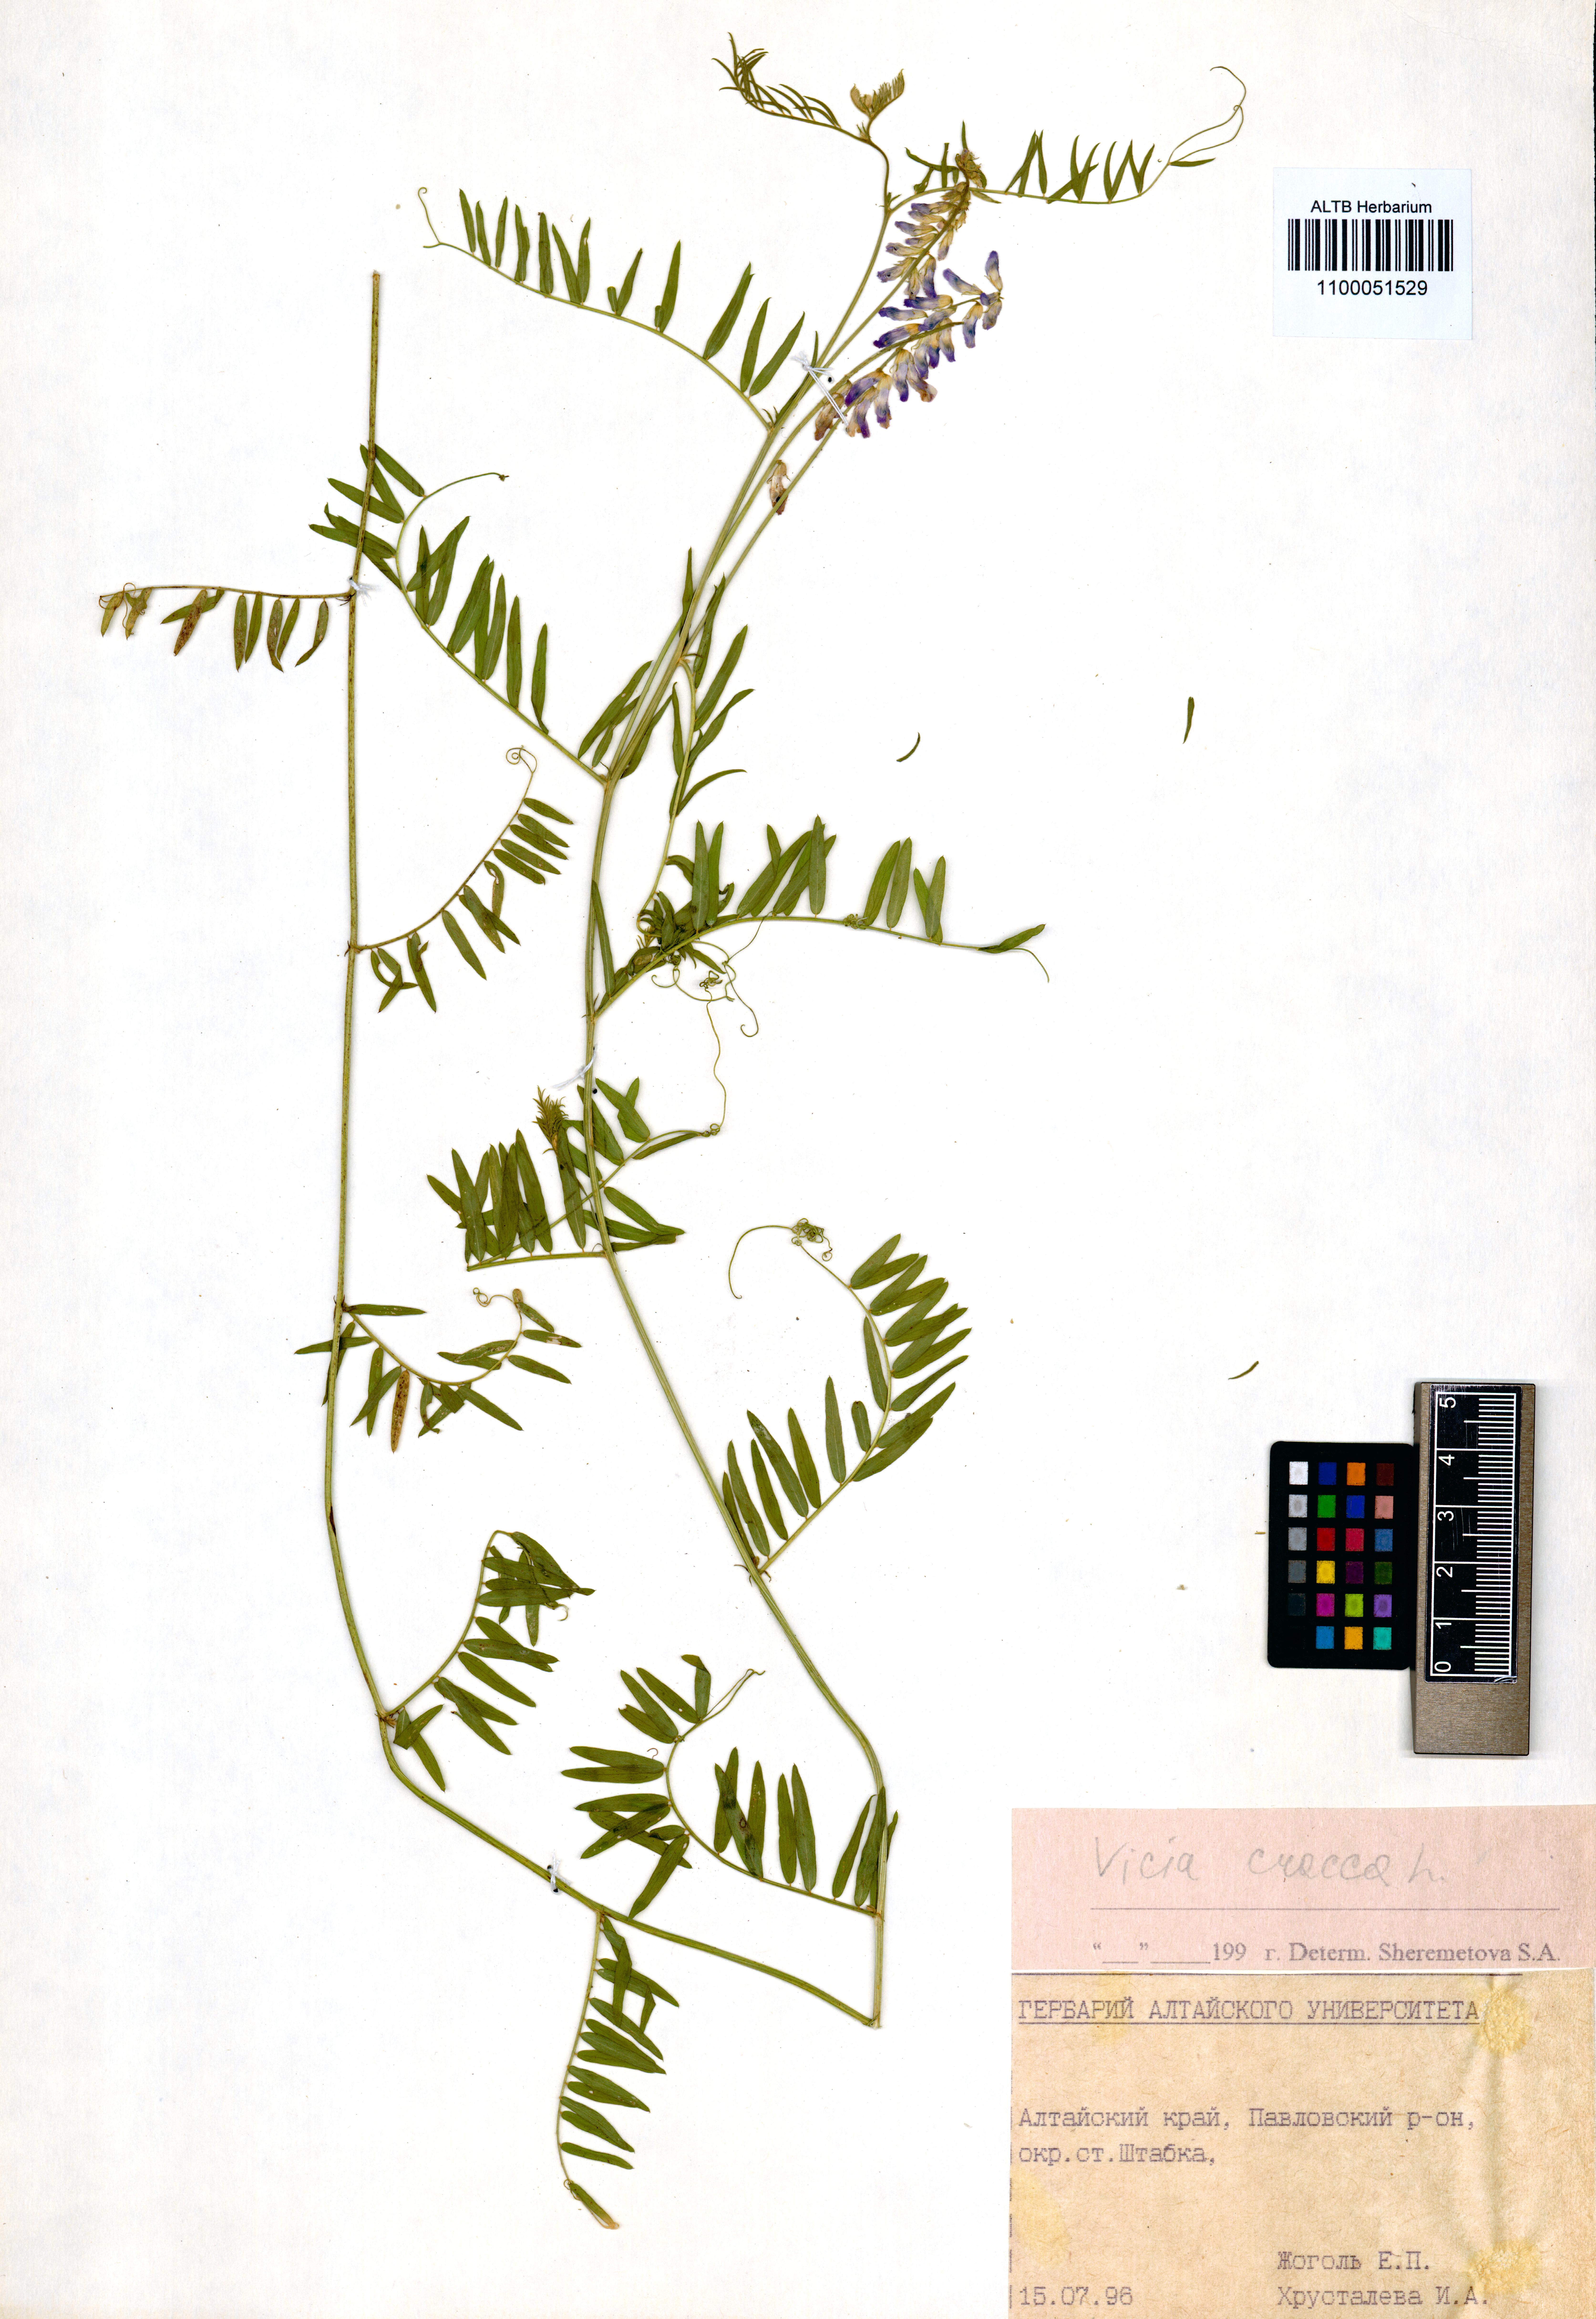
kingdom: Plantae
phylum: Tracheophyta
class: Magnoliopsida
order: Fabales
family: Fabaceae
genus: Vicia
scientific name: Vicia cracca
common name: Bird vetch
